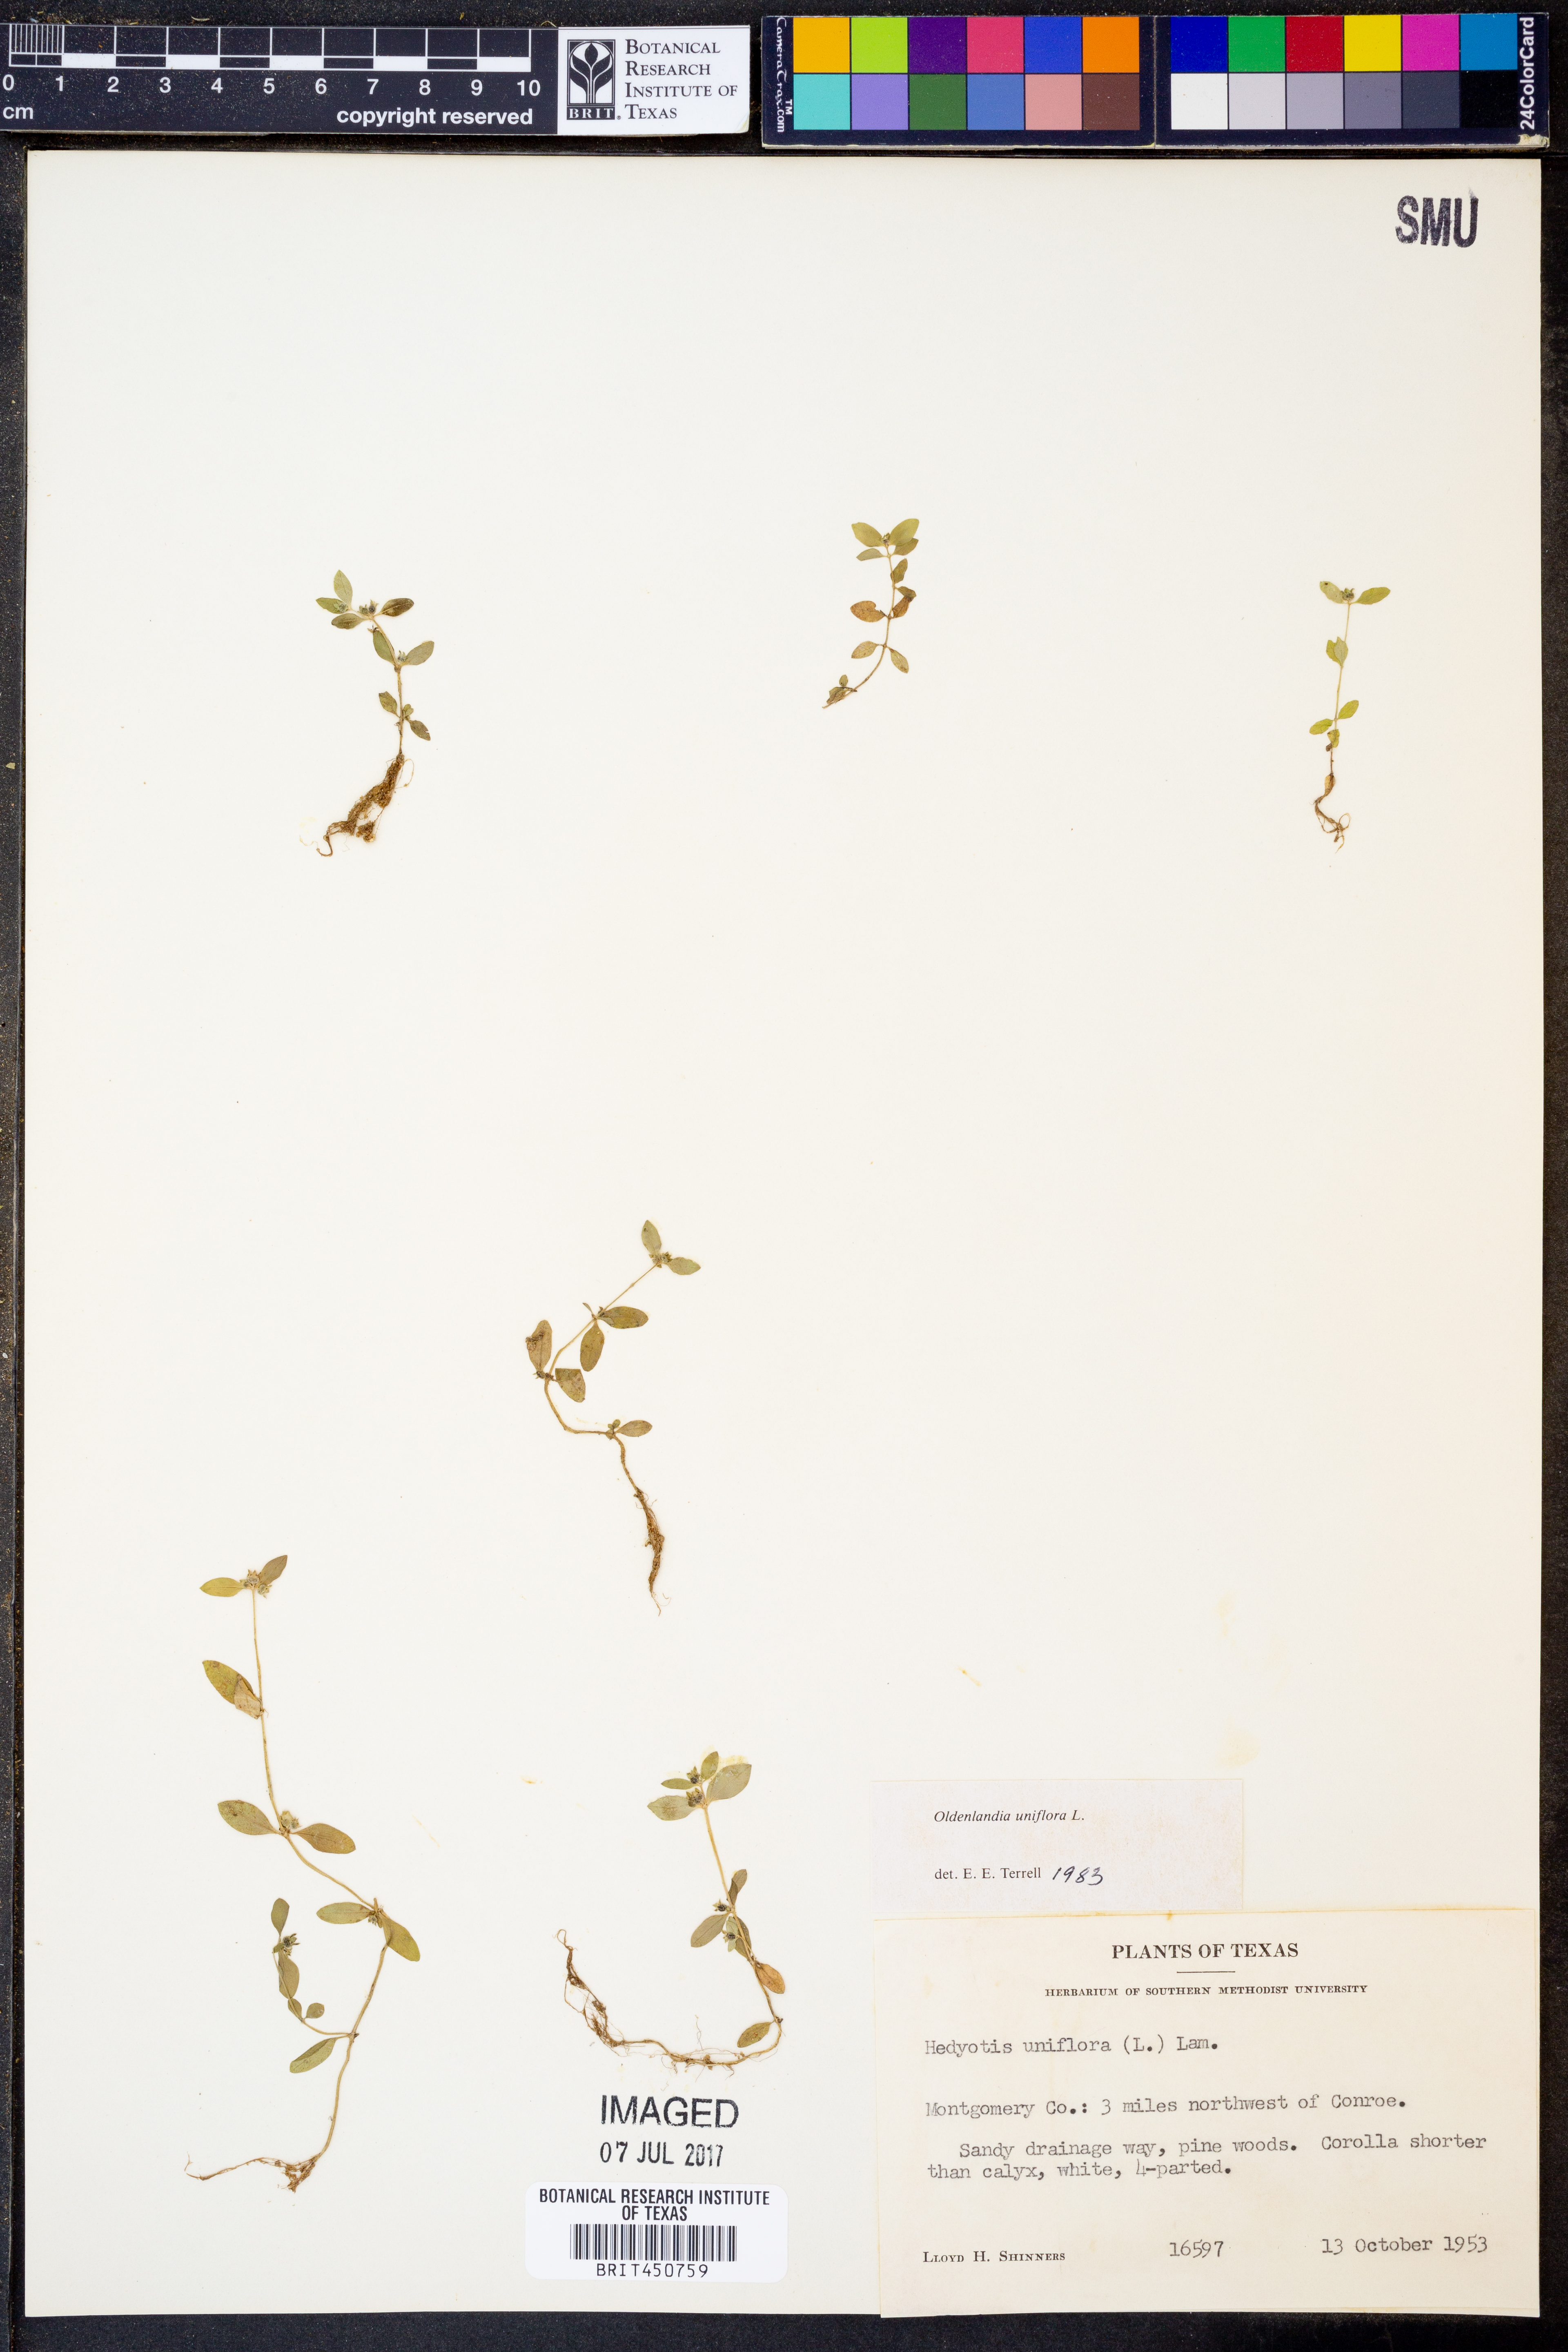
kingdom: Plantae
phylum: Tracheophyta
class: Magnoliopsida
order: Gentianales
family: Rubiaceae
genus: Edrastima
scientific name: Edrastima uniflora
